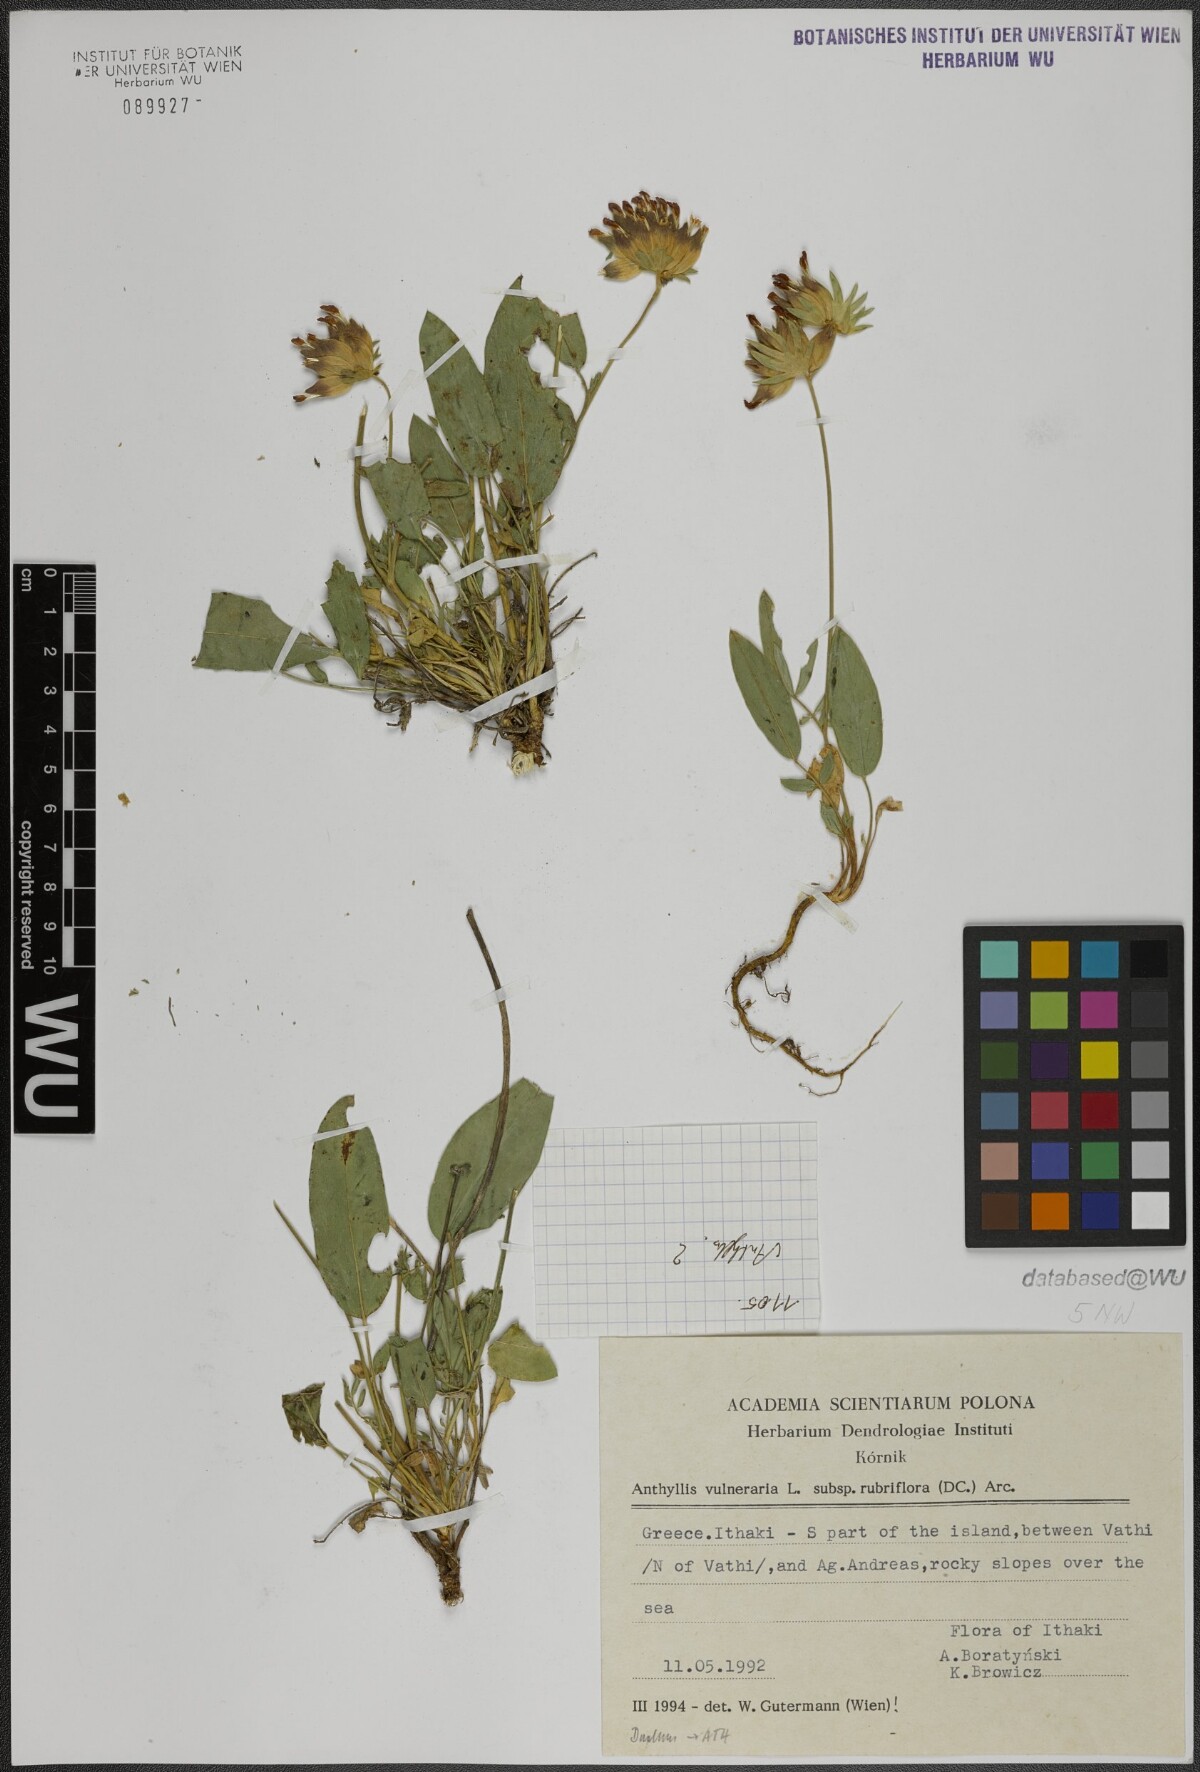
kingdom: Plantae
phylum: Tracheophyta
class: Magnoliopsida
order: Fabales
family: Fabaceae
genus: Anthyllis
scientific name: Anthyllis vulneraria
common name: Kidney vetch
